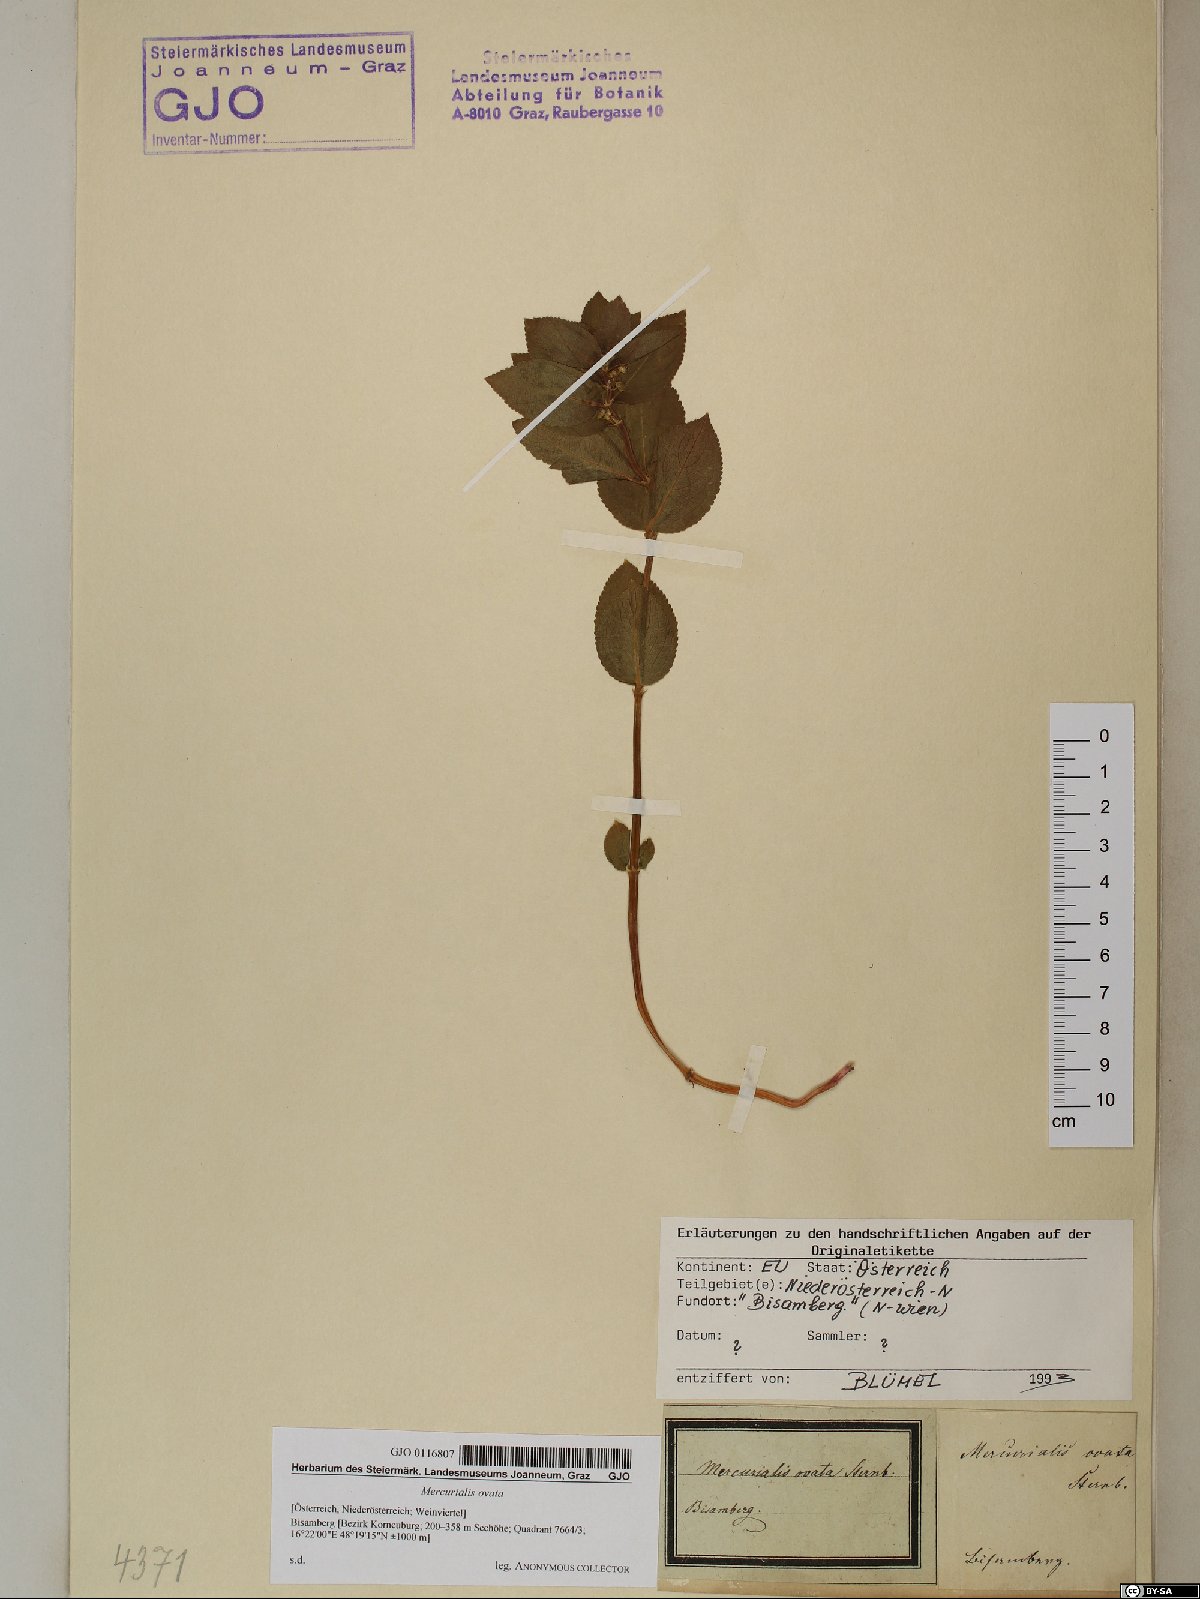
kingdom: Plantae
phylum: Tracheophyta
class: Magnoliopsida
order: Malpighiales
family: Euphorbiaceae
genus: Mercurialis
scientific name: Mercurialis ovata
